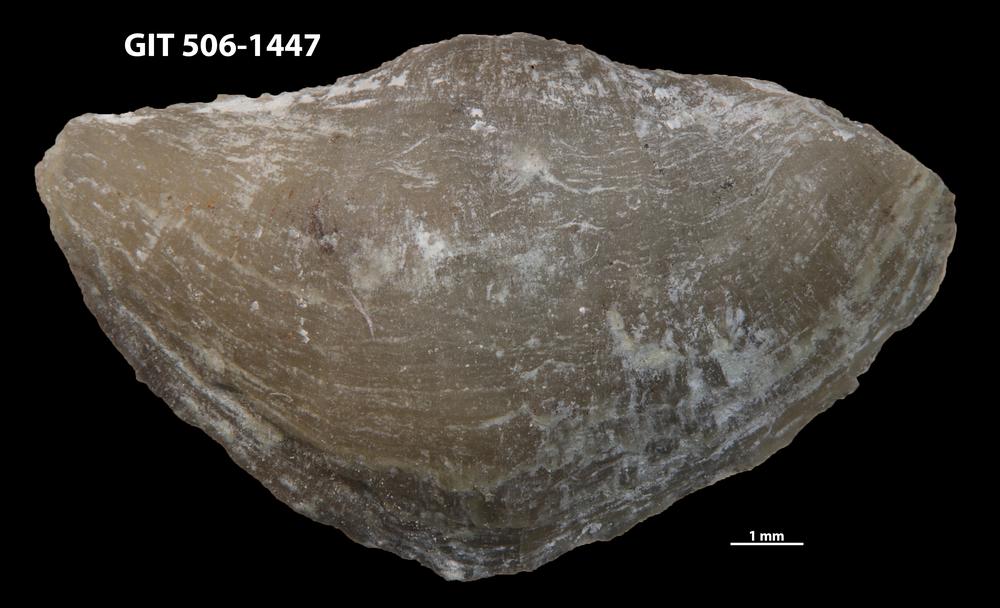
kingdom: Animalia
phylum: Brachiopoda
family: Eopholidostrophiidae
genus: Mesopholidostrophia
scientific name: Mesopholidostrophia Leptaena laevigata
